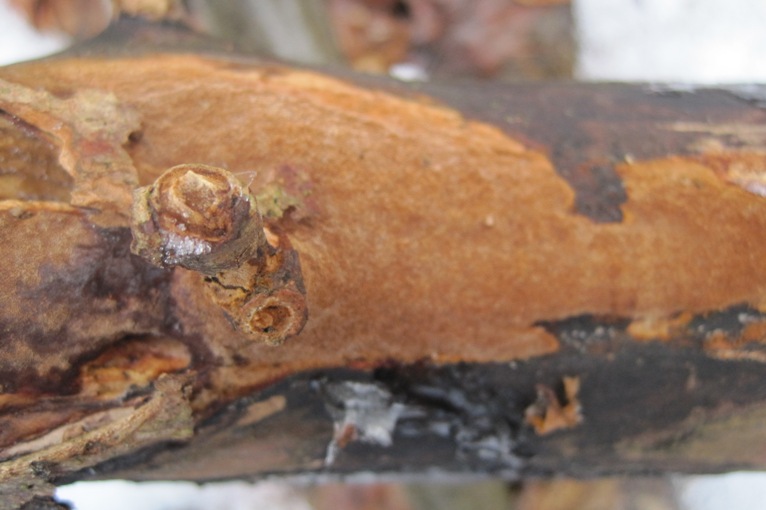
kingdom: Fungi
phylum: Basidiomycota
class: Agaricomycetes
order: Hymenochaetales
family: Hymenochaetaceae
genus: Fuscoporia
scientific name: Fuscoporia ferruginosa
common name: rustbrun ildporesvamp
